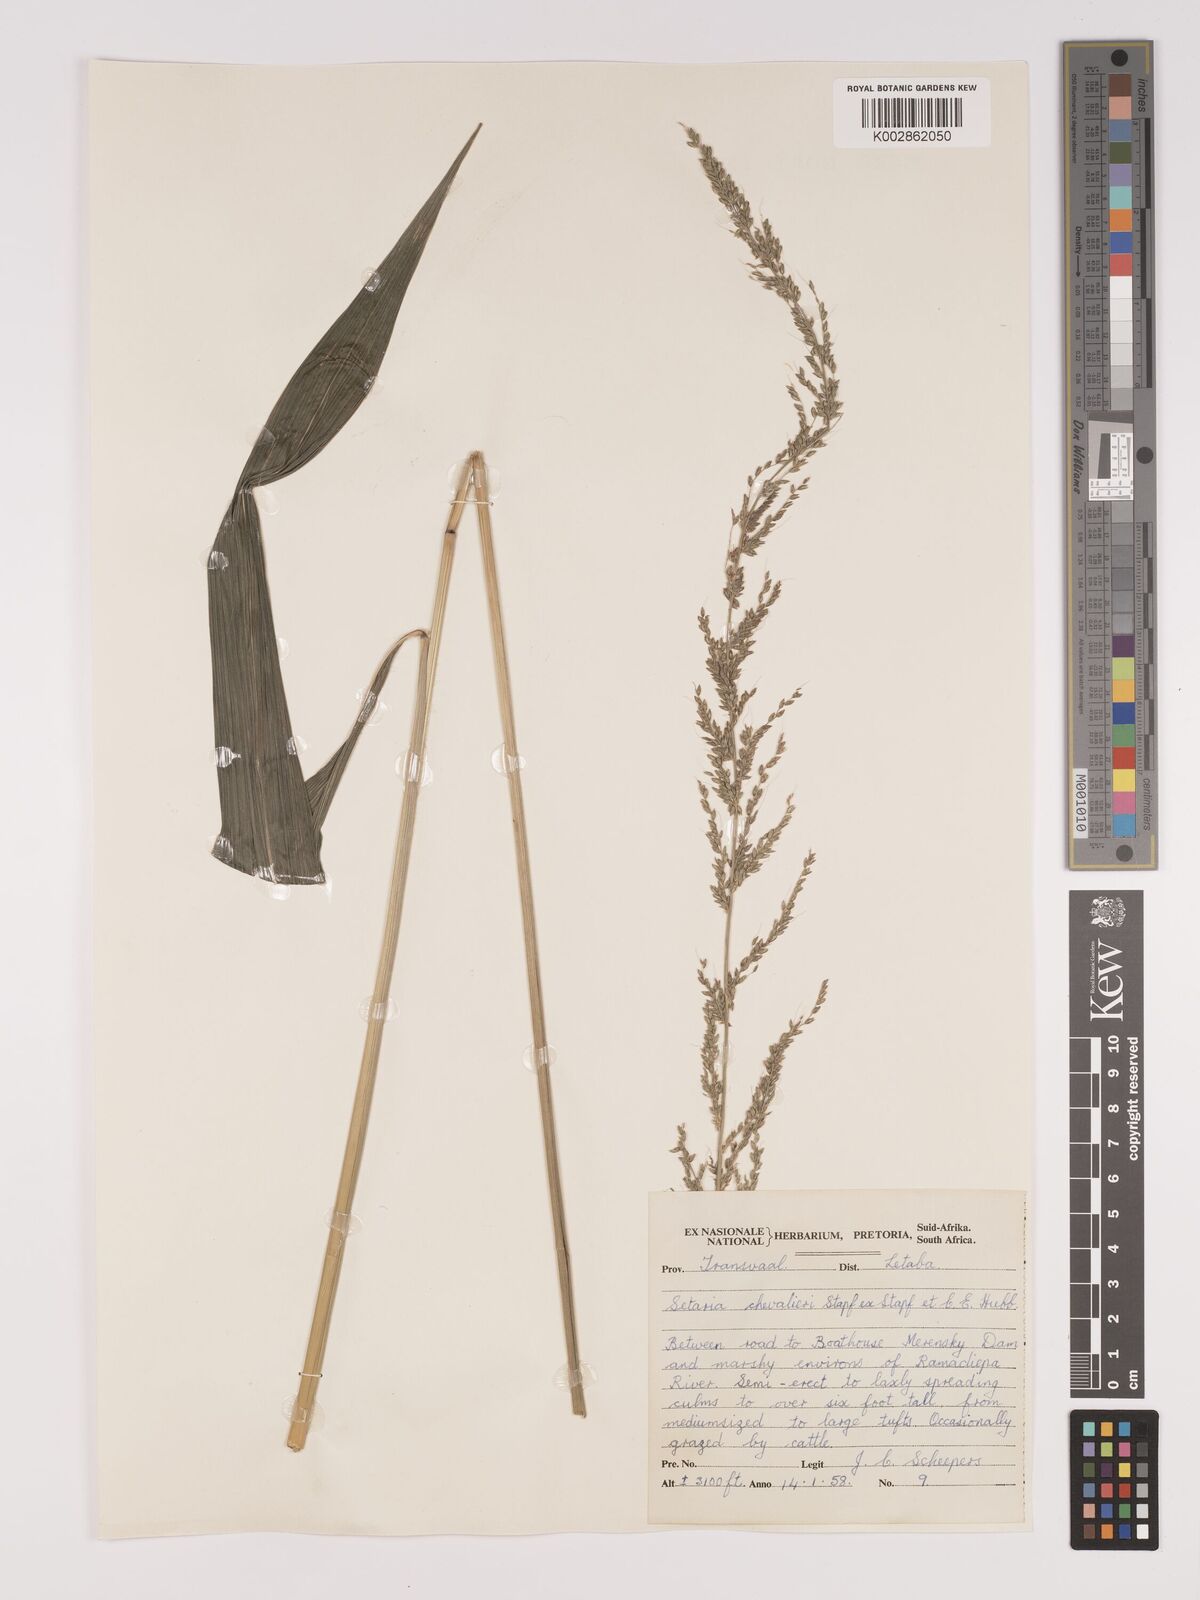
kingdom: Plantae
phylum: Tracheophyta
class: Liliopsida
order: Poales
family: Poaceae
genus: Setaria
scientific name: Setaria megaphylla
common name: Bigleaf bristlegrass
